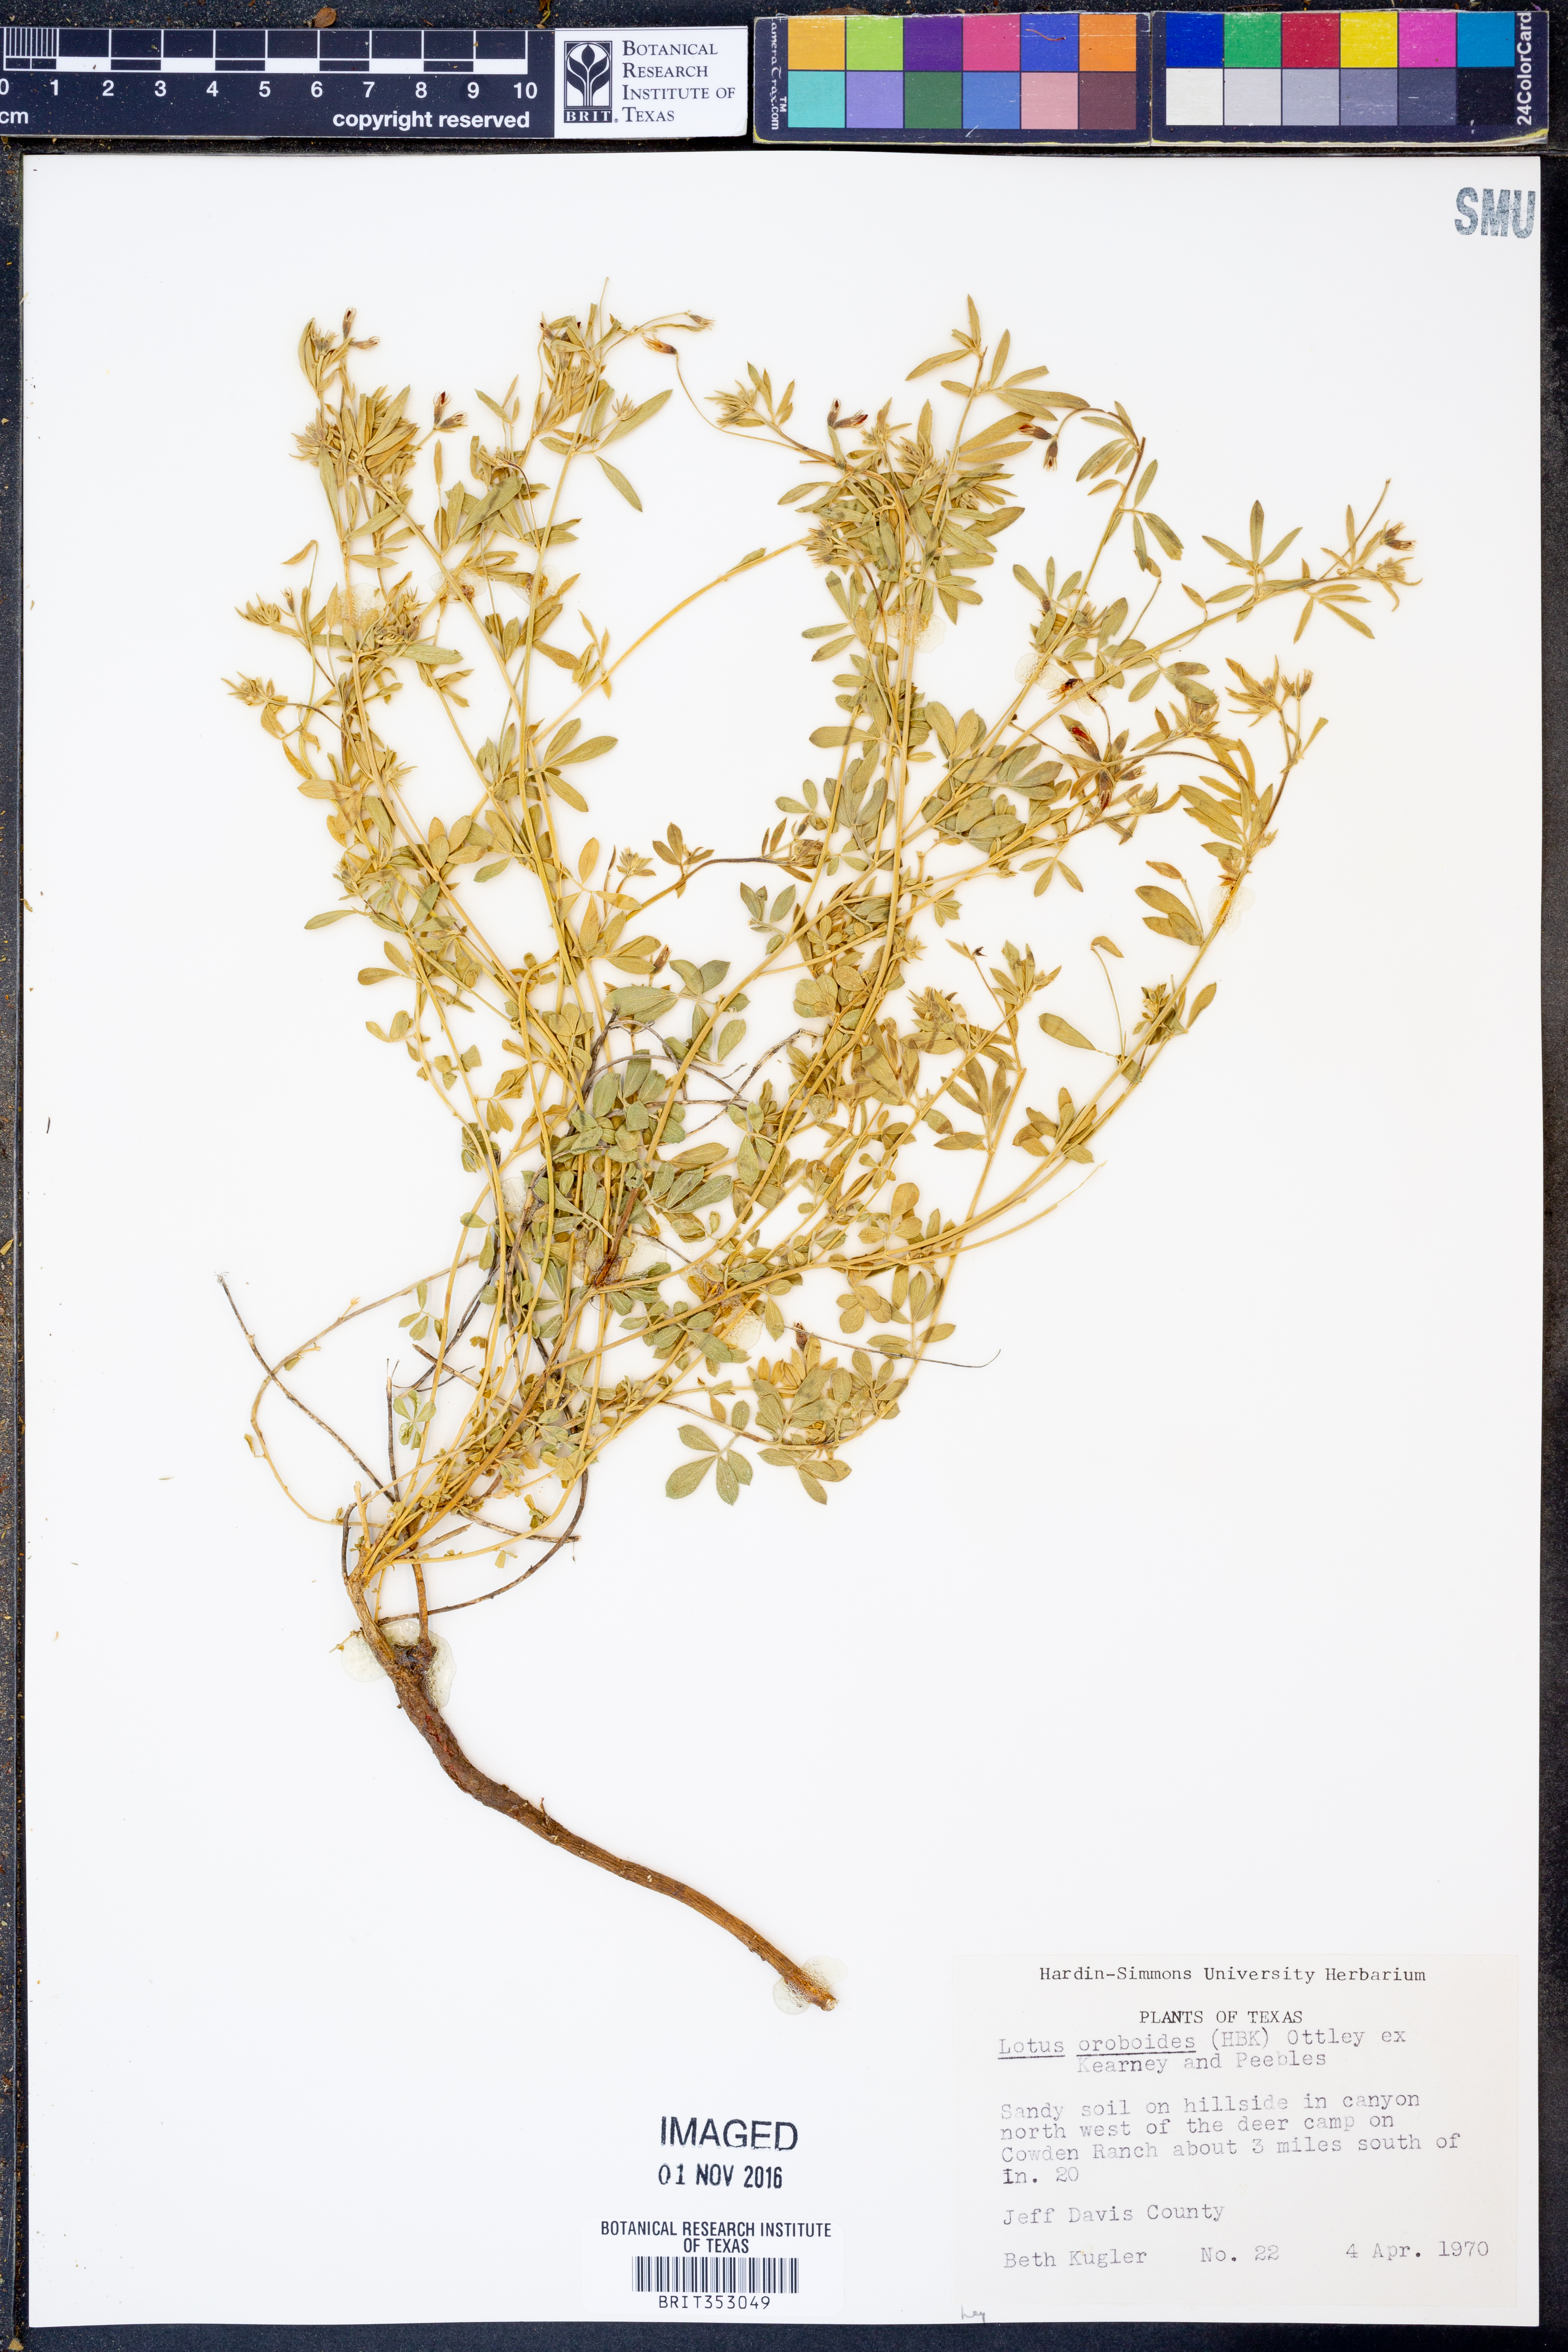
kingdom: Plantae
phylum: Tracheophyta
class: Magnoliopsida
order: Fabales
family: Fabaceae
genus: Acmispon
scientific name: Acmispon oroboides
